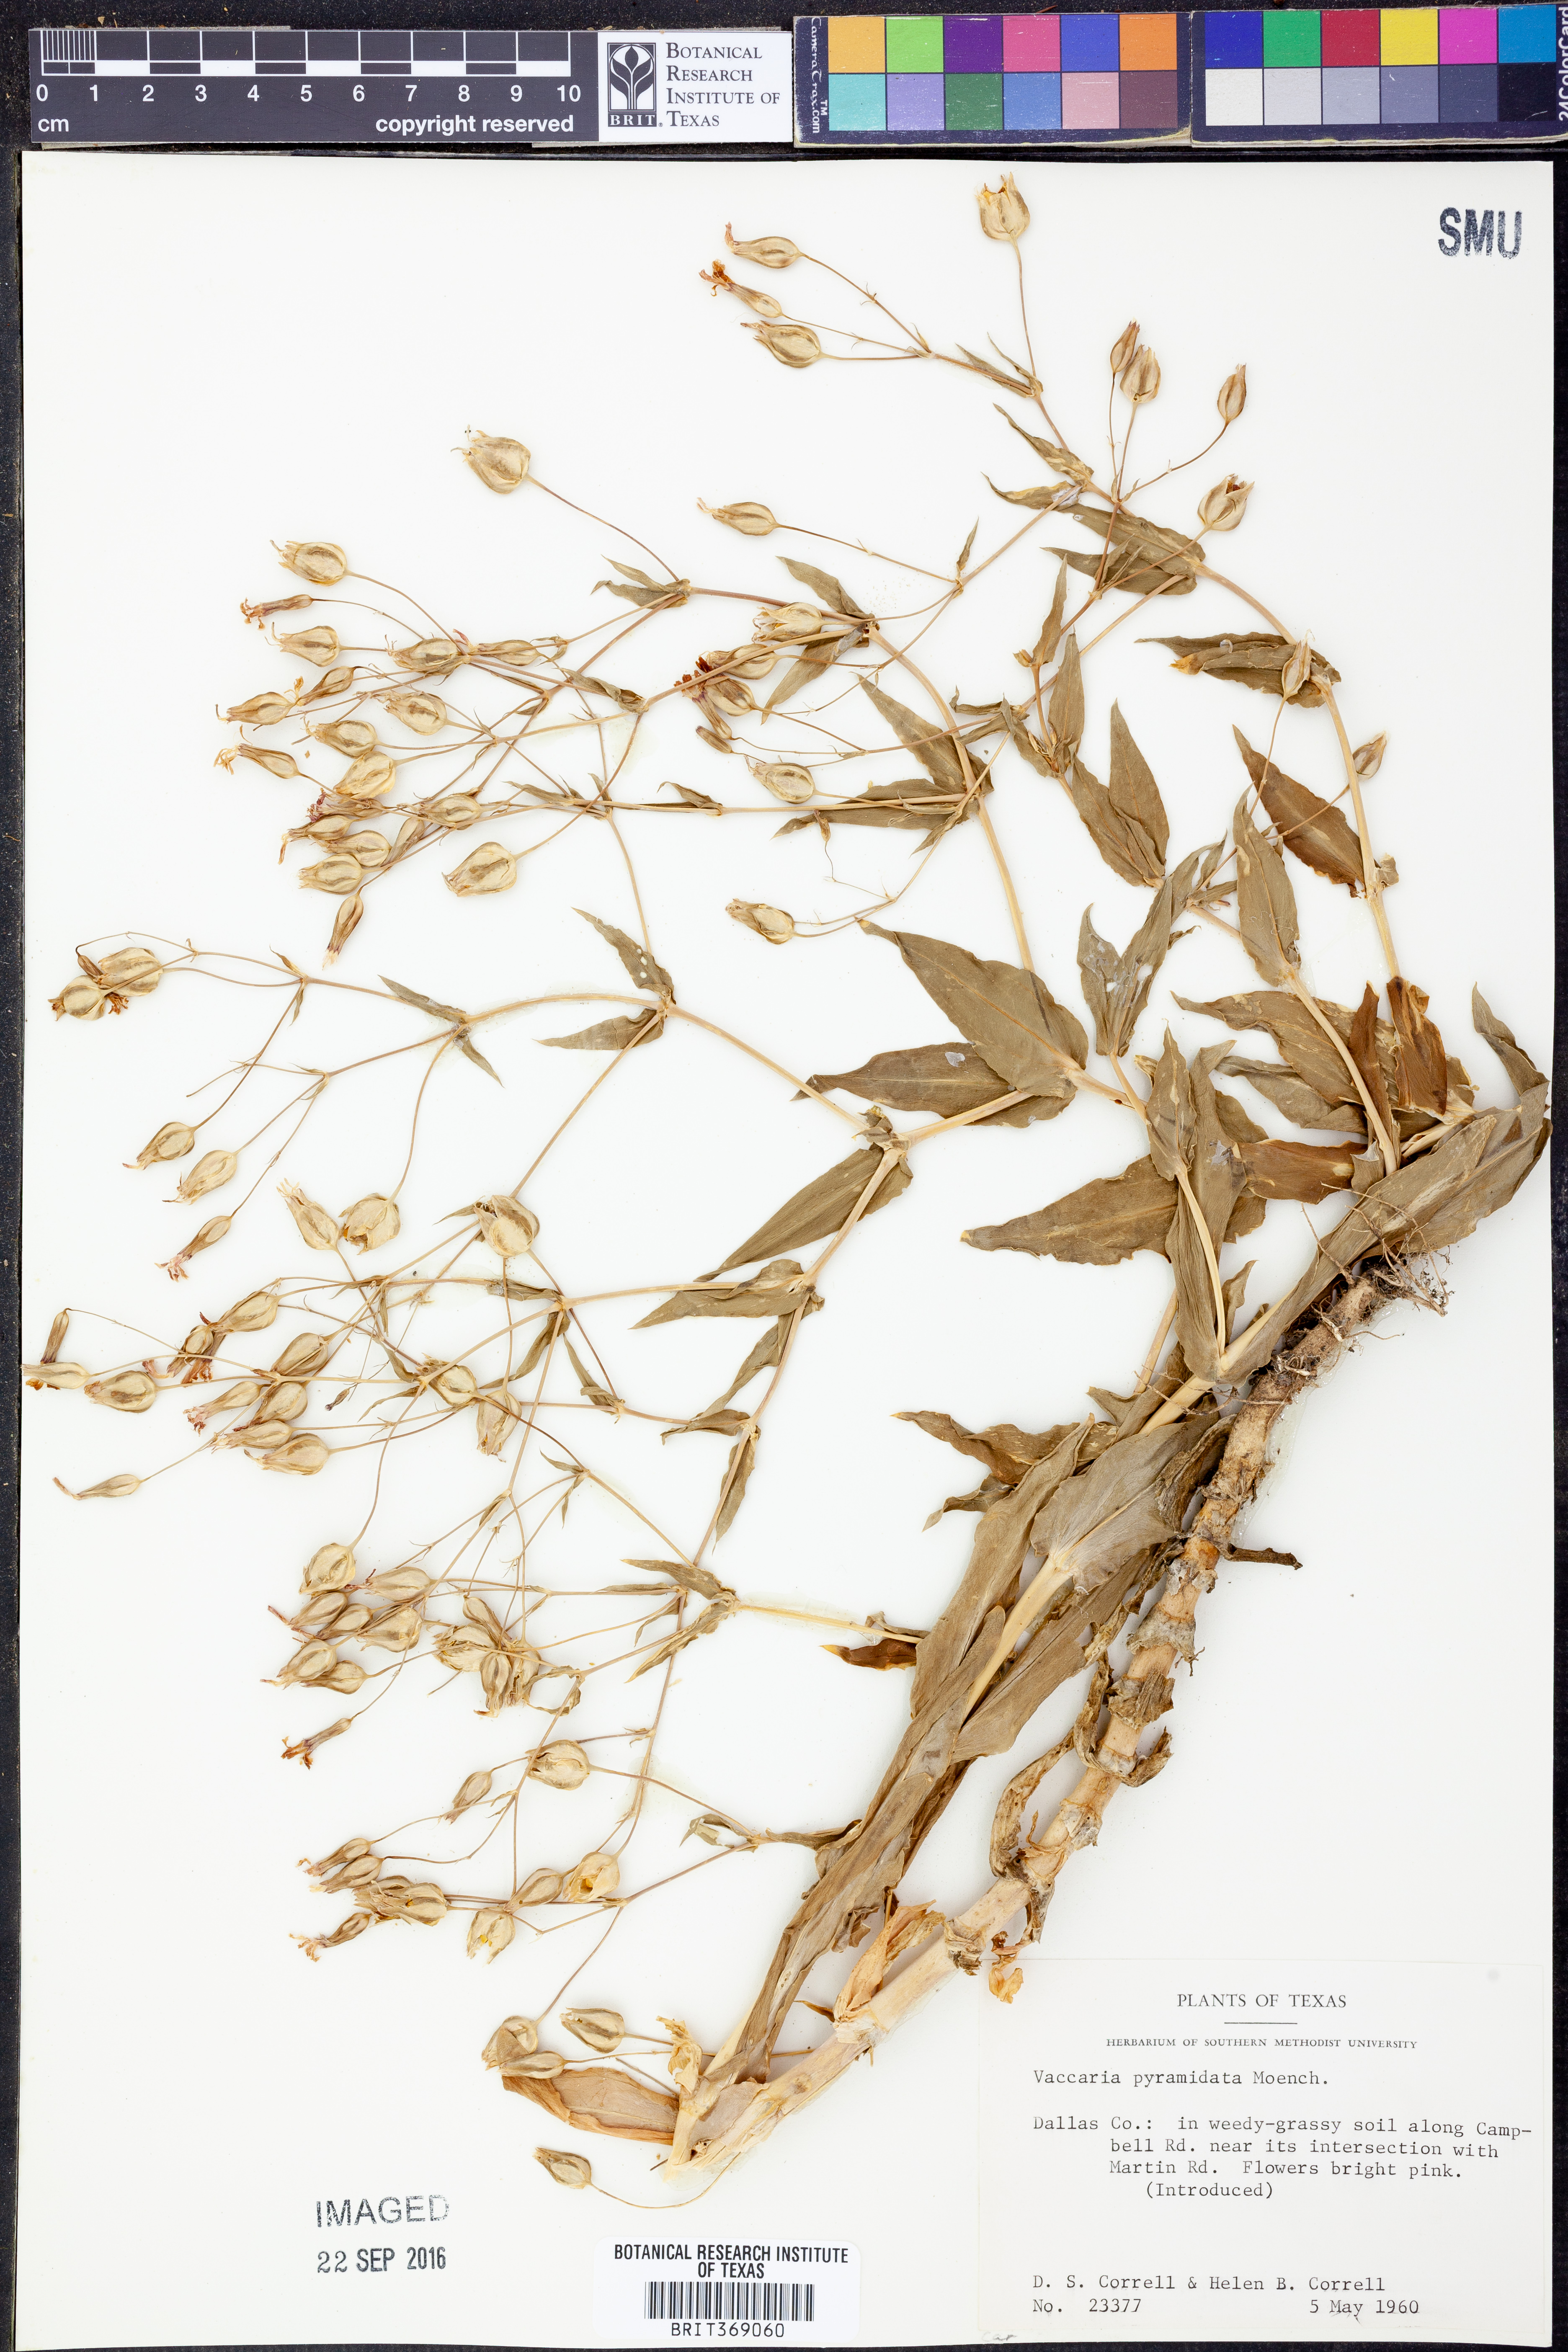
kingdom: Plantae
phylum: Tracheophyta
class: Magnoliopsida
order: Caryophyllales
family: Caryophyllaceae
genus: Gypsophila
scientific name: Gypsophila vaccaria
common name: Cow soapwort
